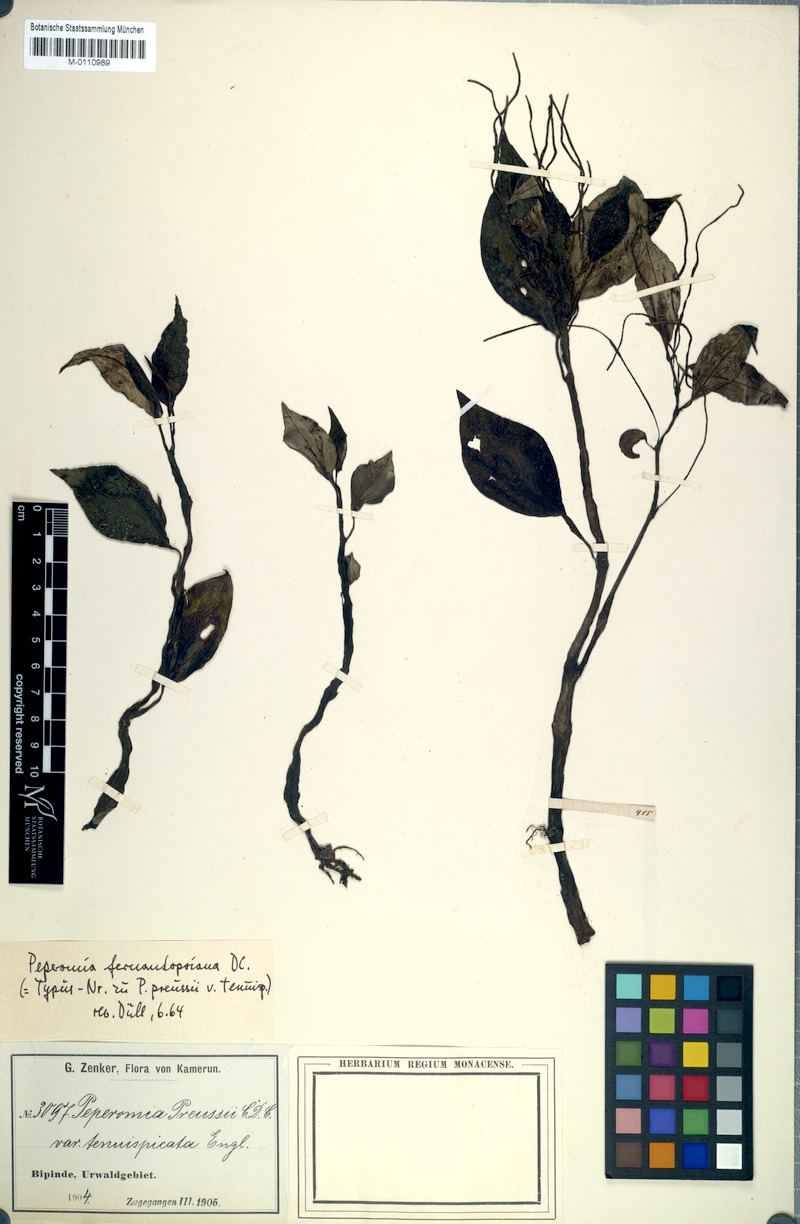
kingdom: Plantae
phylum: Tracheophyta
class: Magnoliopsida
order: Piperales
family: Piperaceae
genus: Peperomia
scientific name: Peperomia fernandopoiana
